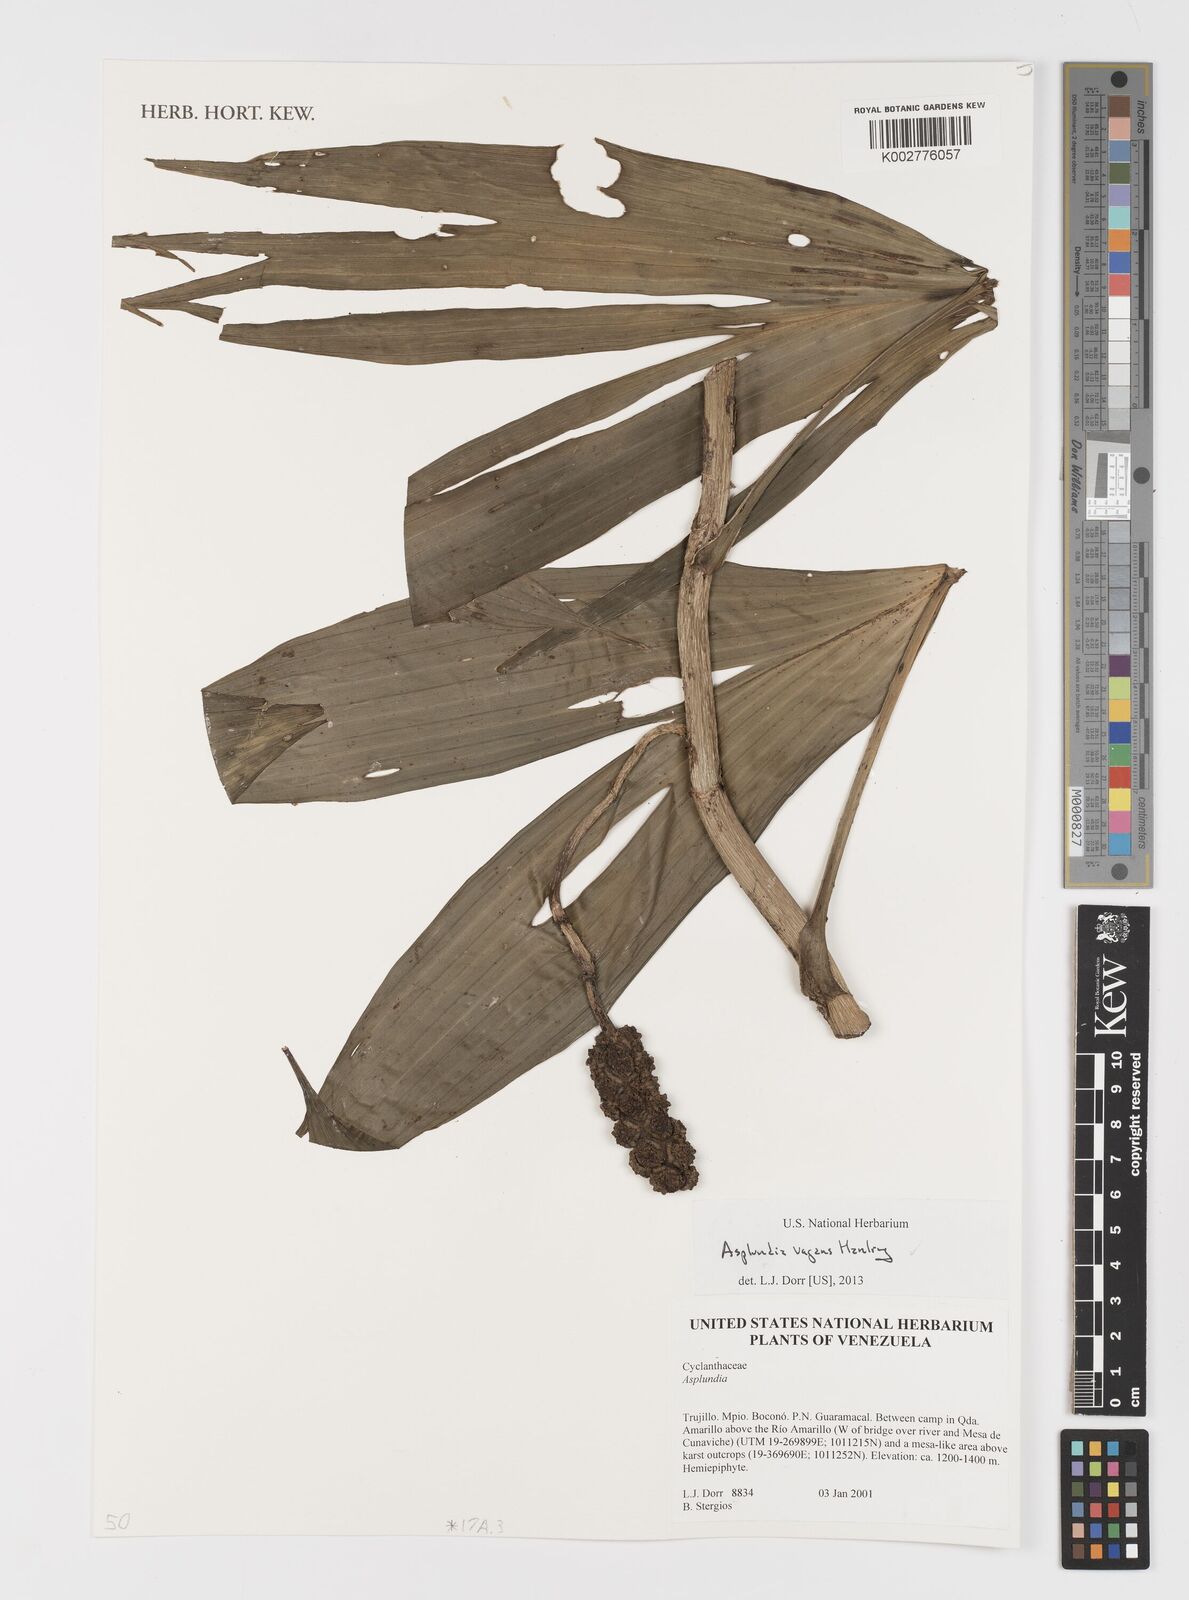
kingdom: Plantae
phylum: Tracheophyta
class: Liliopsida
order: Pandanales
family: Cyclanthaceae
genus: Asplundia
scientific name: Asplundia vagans
